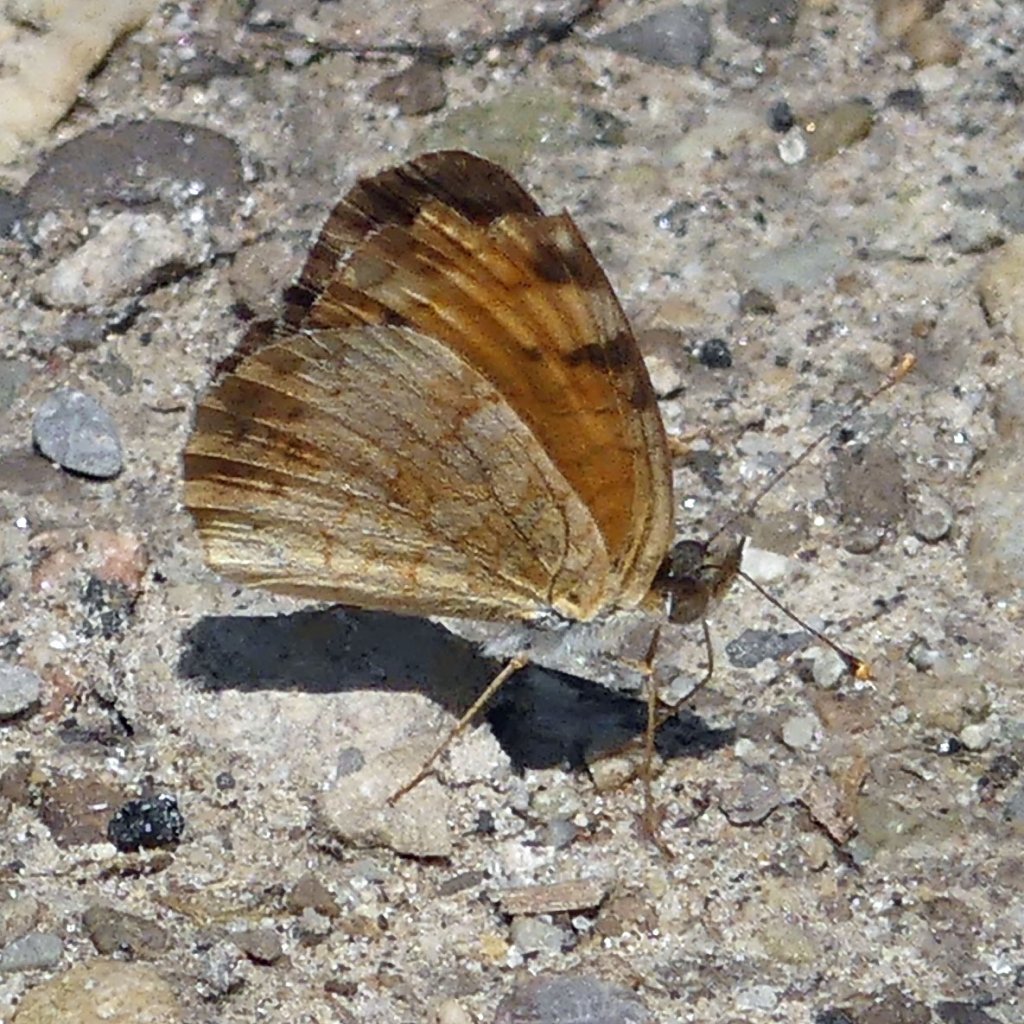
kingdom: Animalia
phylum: Arthropoda
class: Insecta
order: Lepidoptera
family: Nymphalidae
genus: Phyciodes
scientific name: Phyciodes tharos
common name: Northern Crescent
